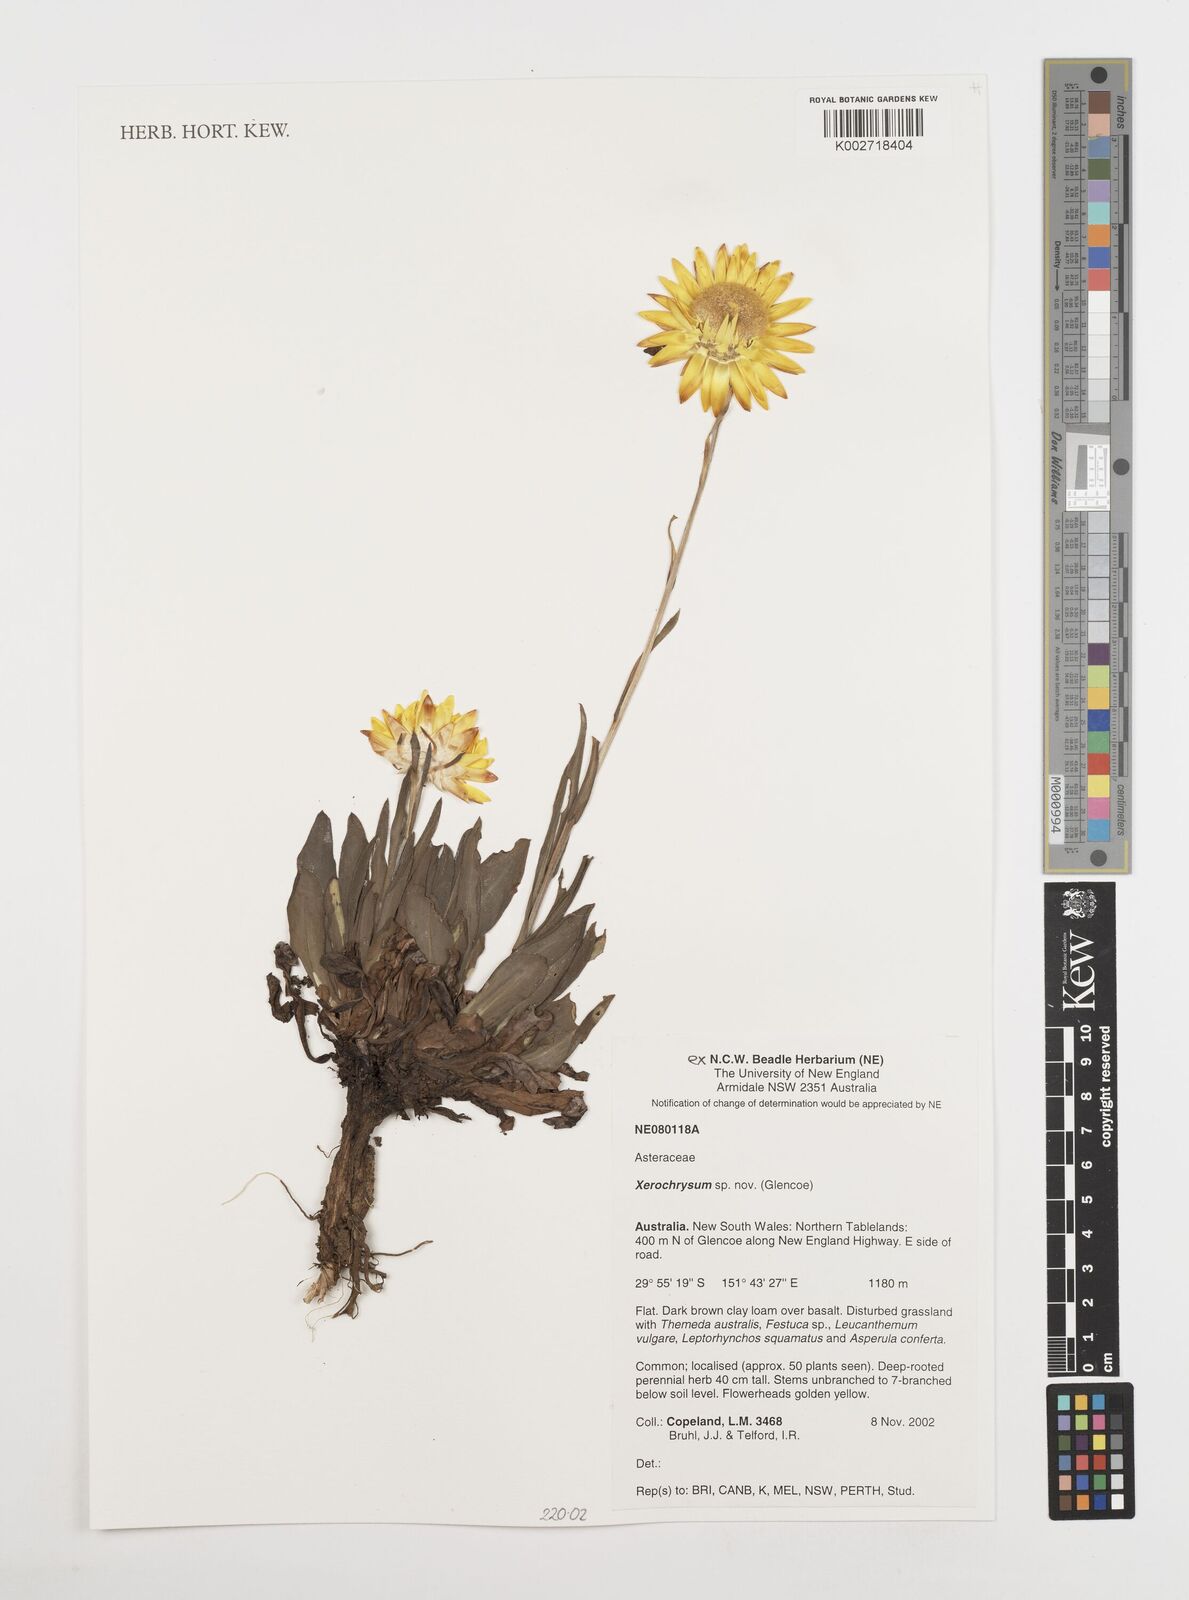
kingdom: Plantae
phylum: Tracheophyta
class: Magnoliopsida
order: Asterales
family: Asteraceae
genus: Xerochrysum
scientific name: Xerochrysum
